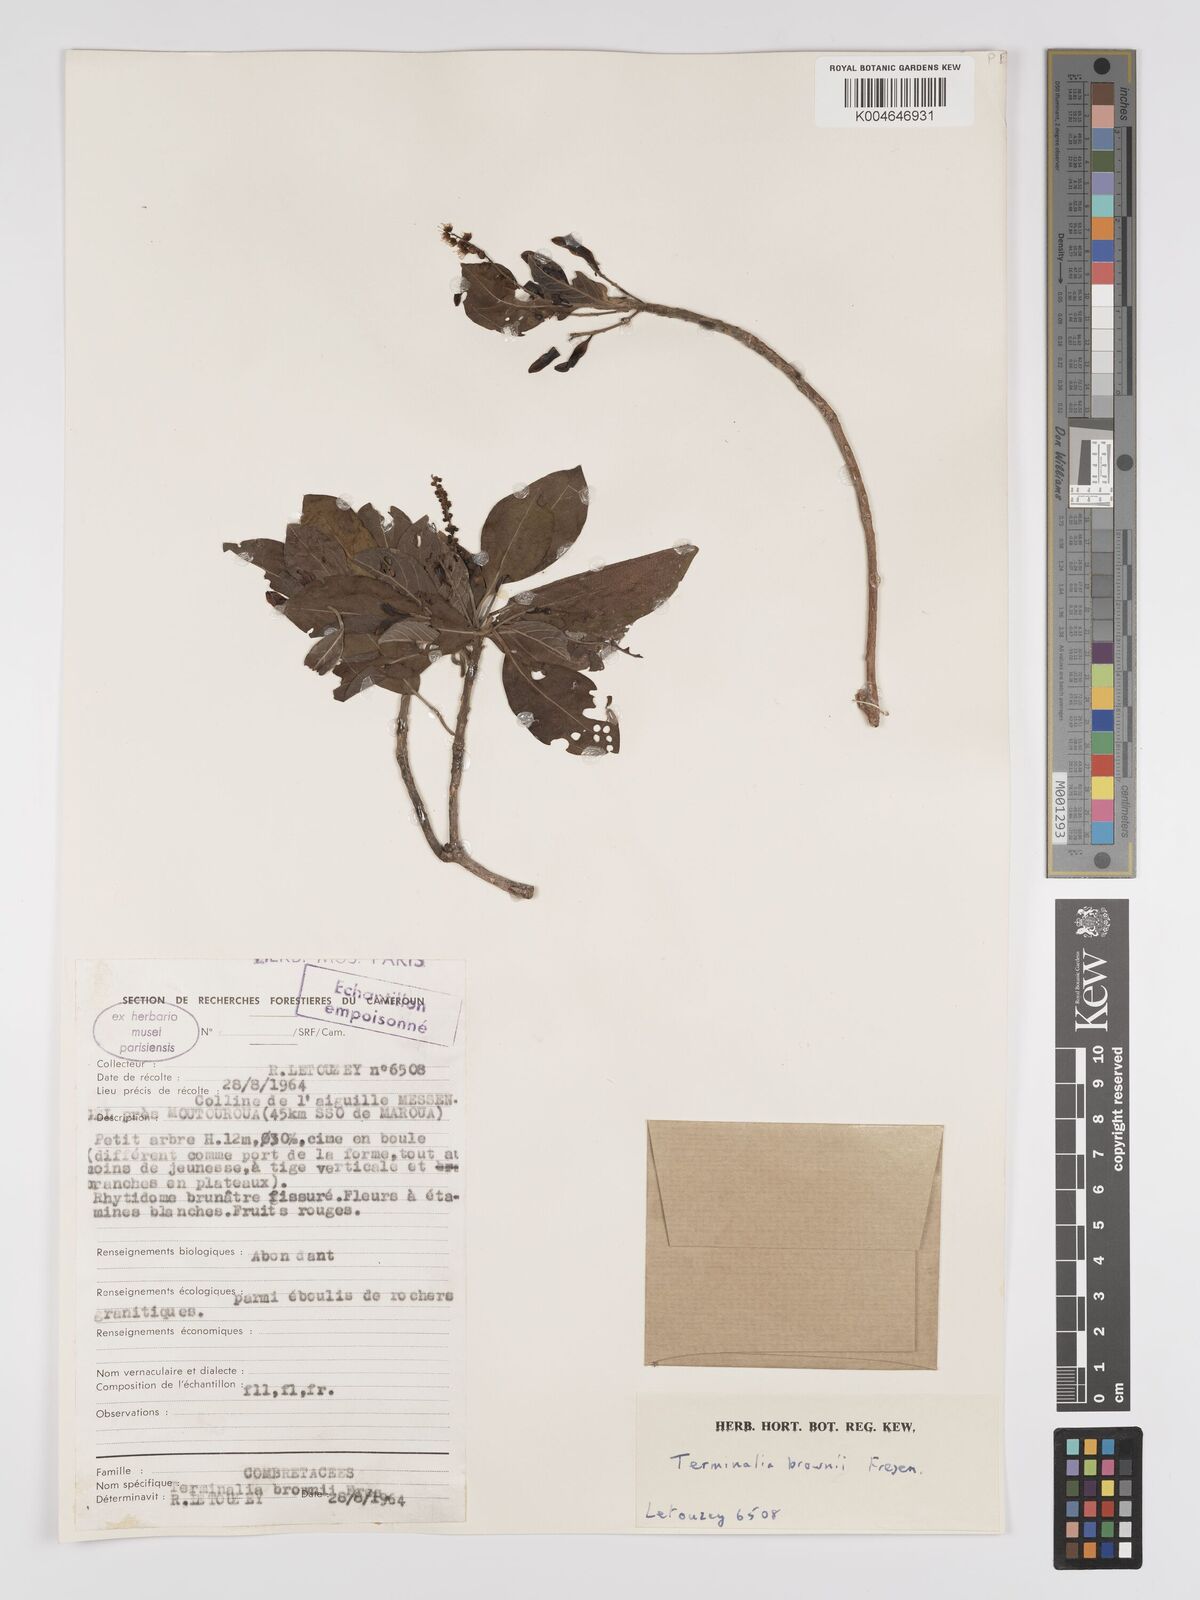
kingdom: Plantae
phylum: Tracheophyta
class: Magnoliopsida
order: Myrtales
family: Combretaceae
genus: Terminalia
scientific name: Terminalia brownii
